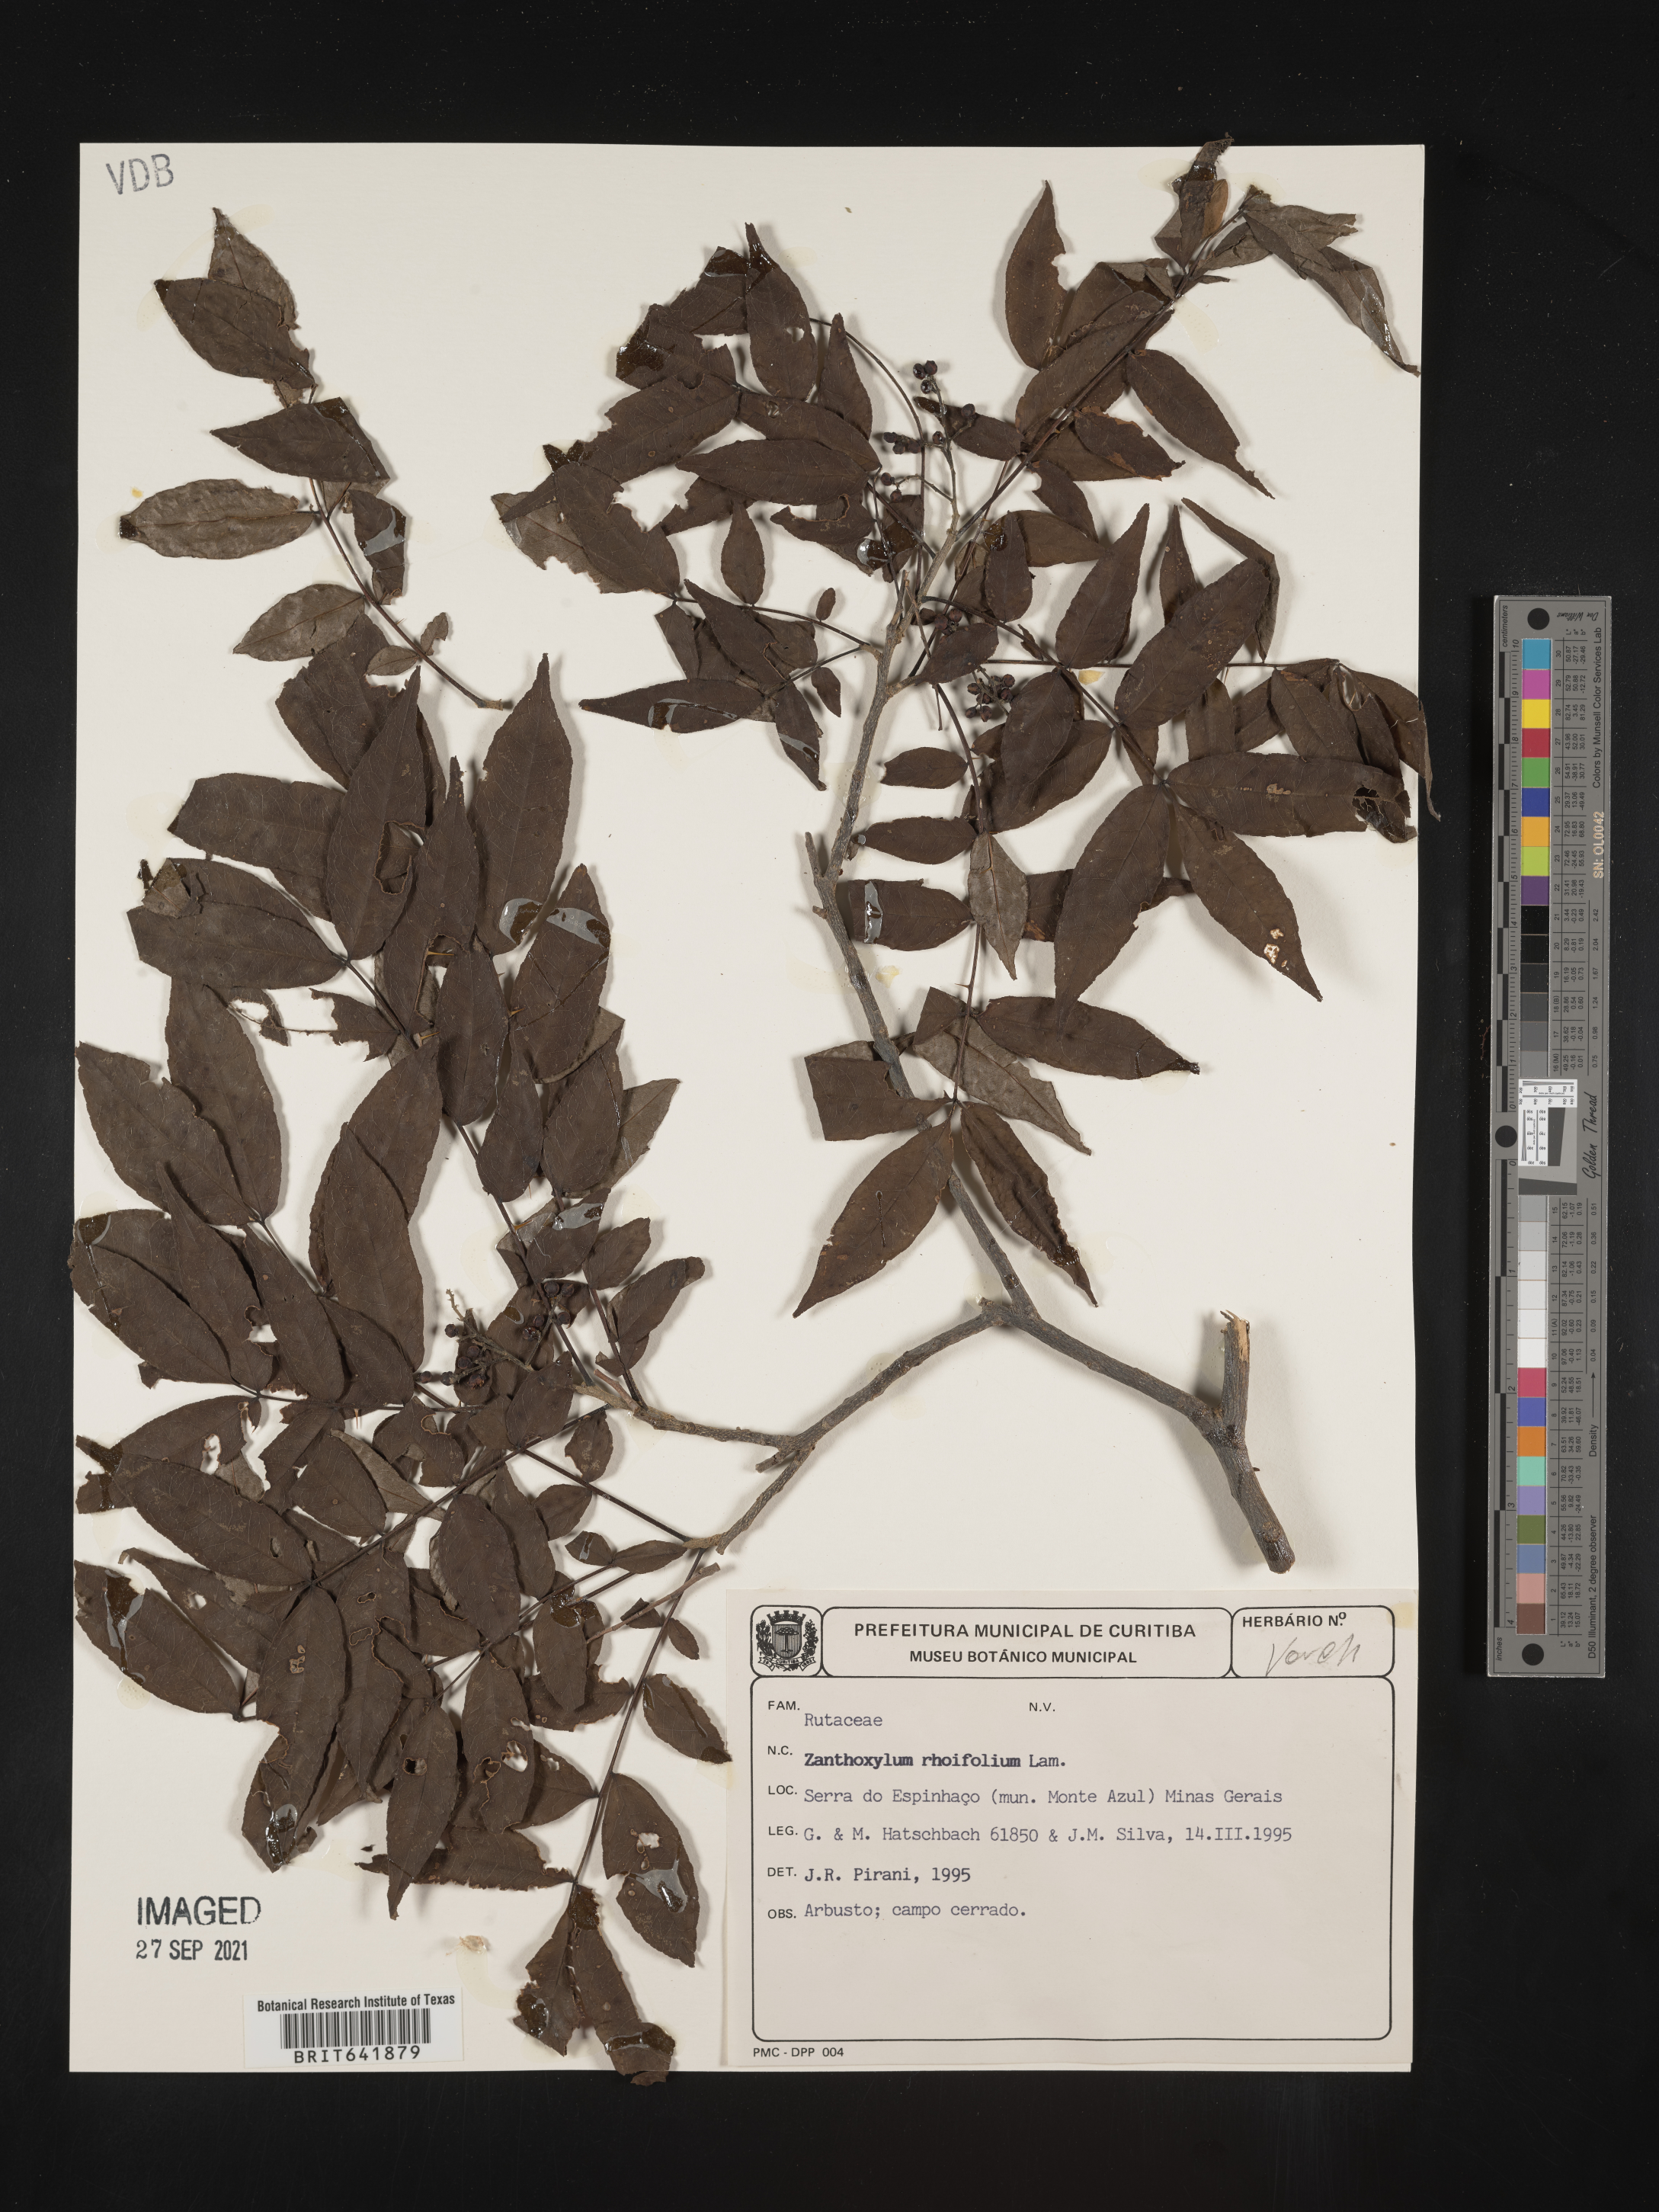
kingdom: Plantae
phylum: Tracheophyta
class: Magnoliopsida
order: Sapindales
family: Rutaceae
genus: Zanthoxylum
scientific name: Zanthoxylum
